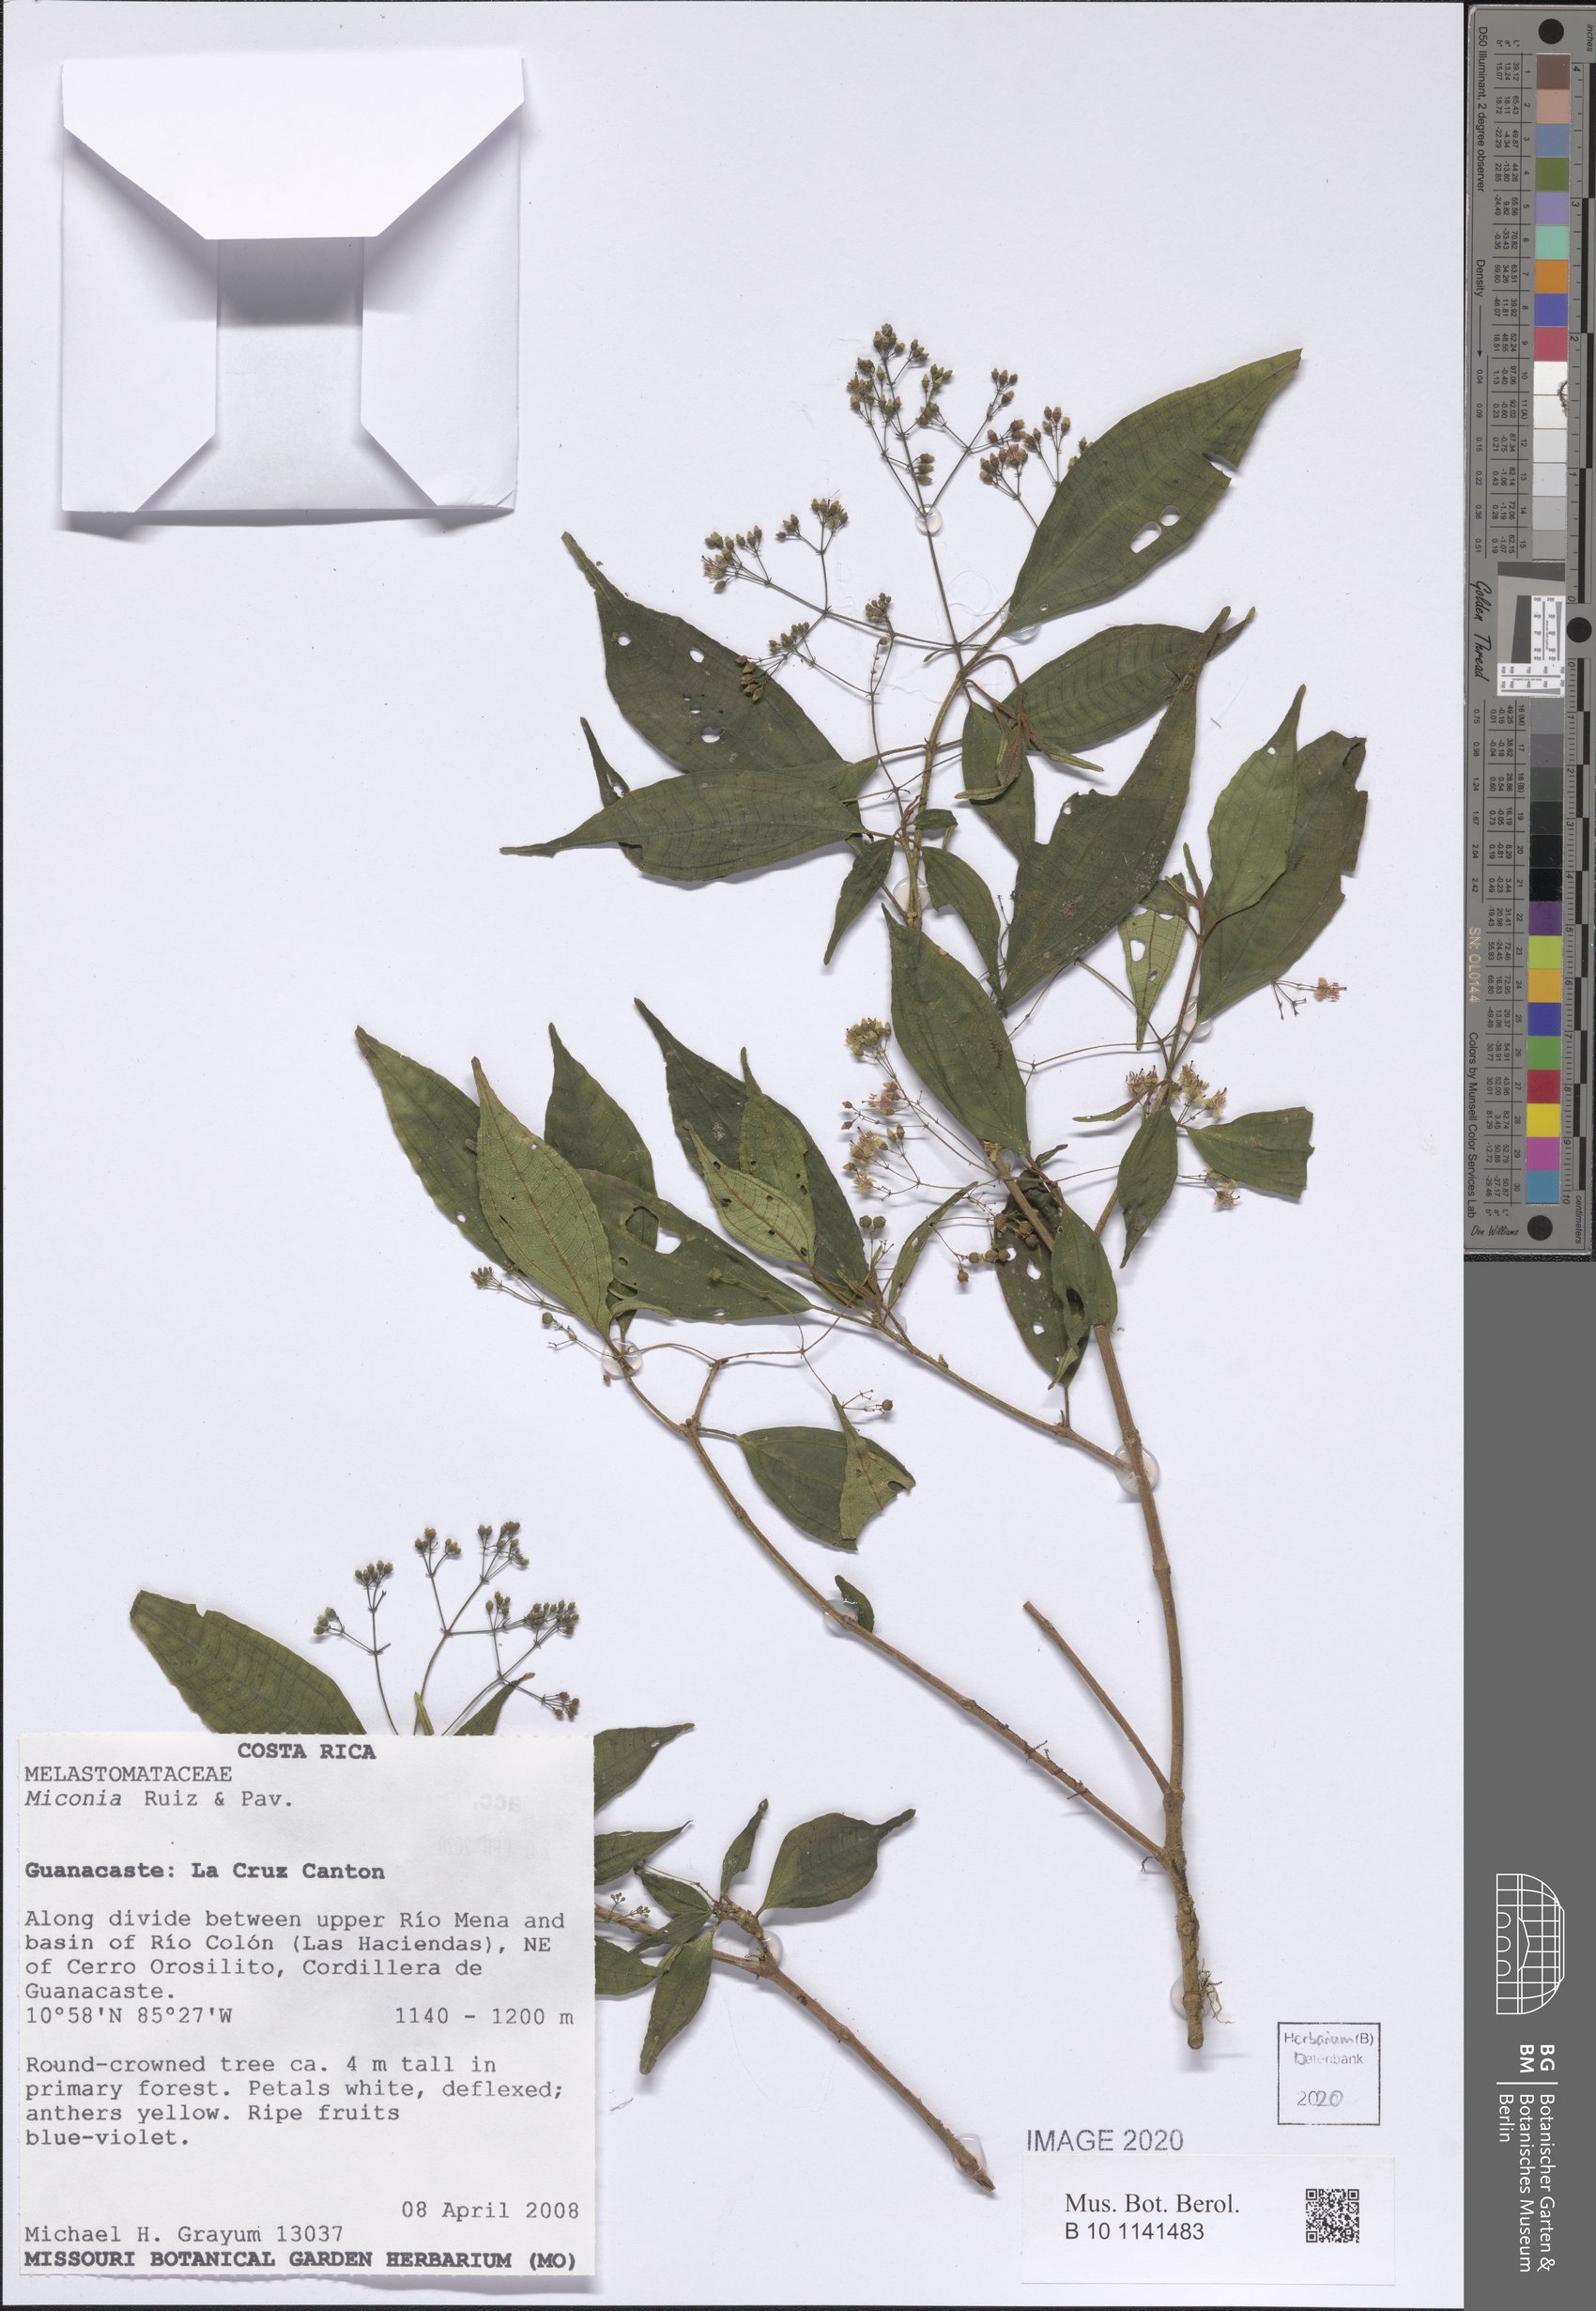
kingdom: Plantae
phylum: Tracheophyta
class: Magnoliopsida
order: Myrtales
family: Melastomataceae
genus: Miconia
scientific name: Miconia
